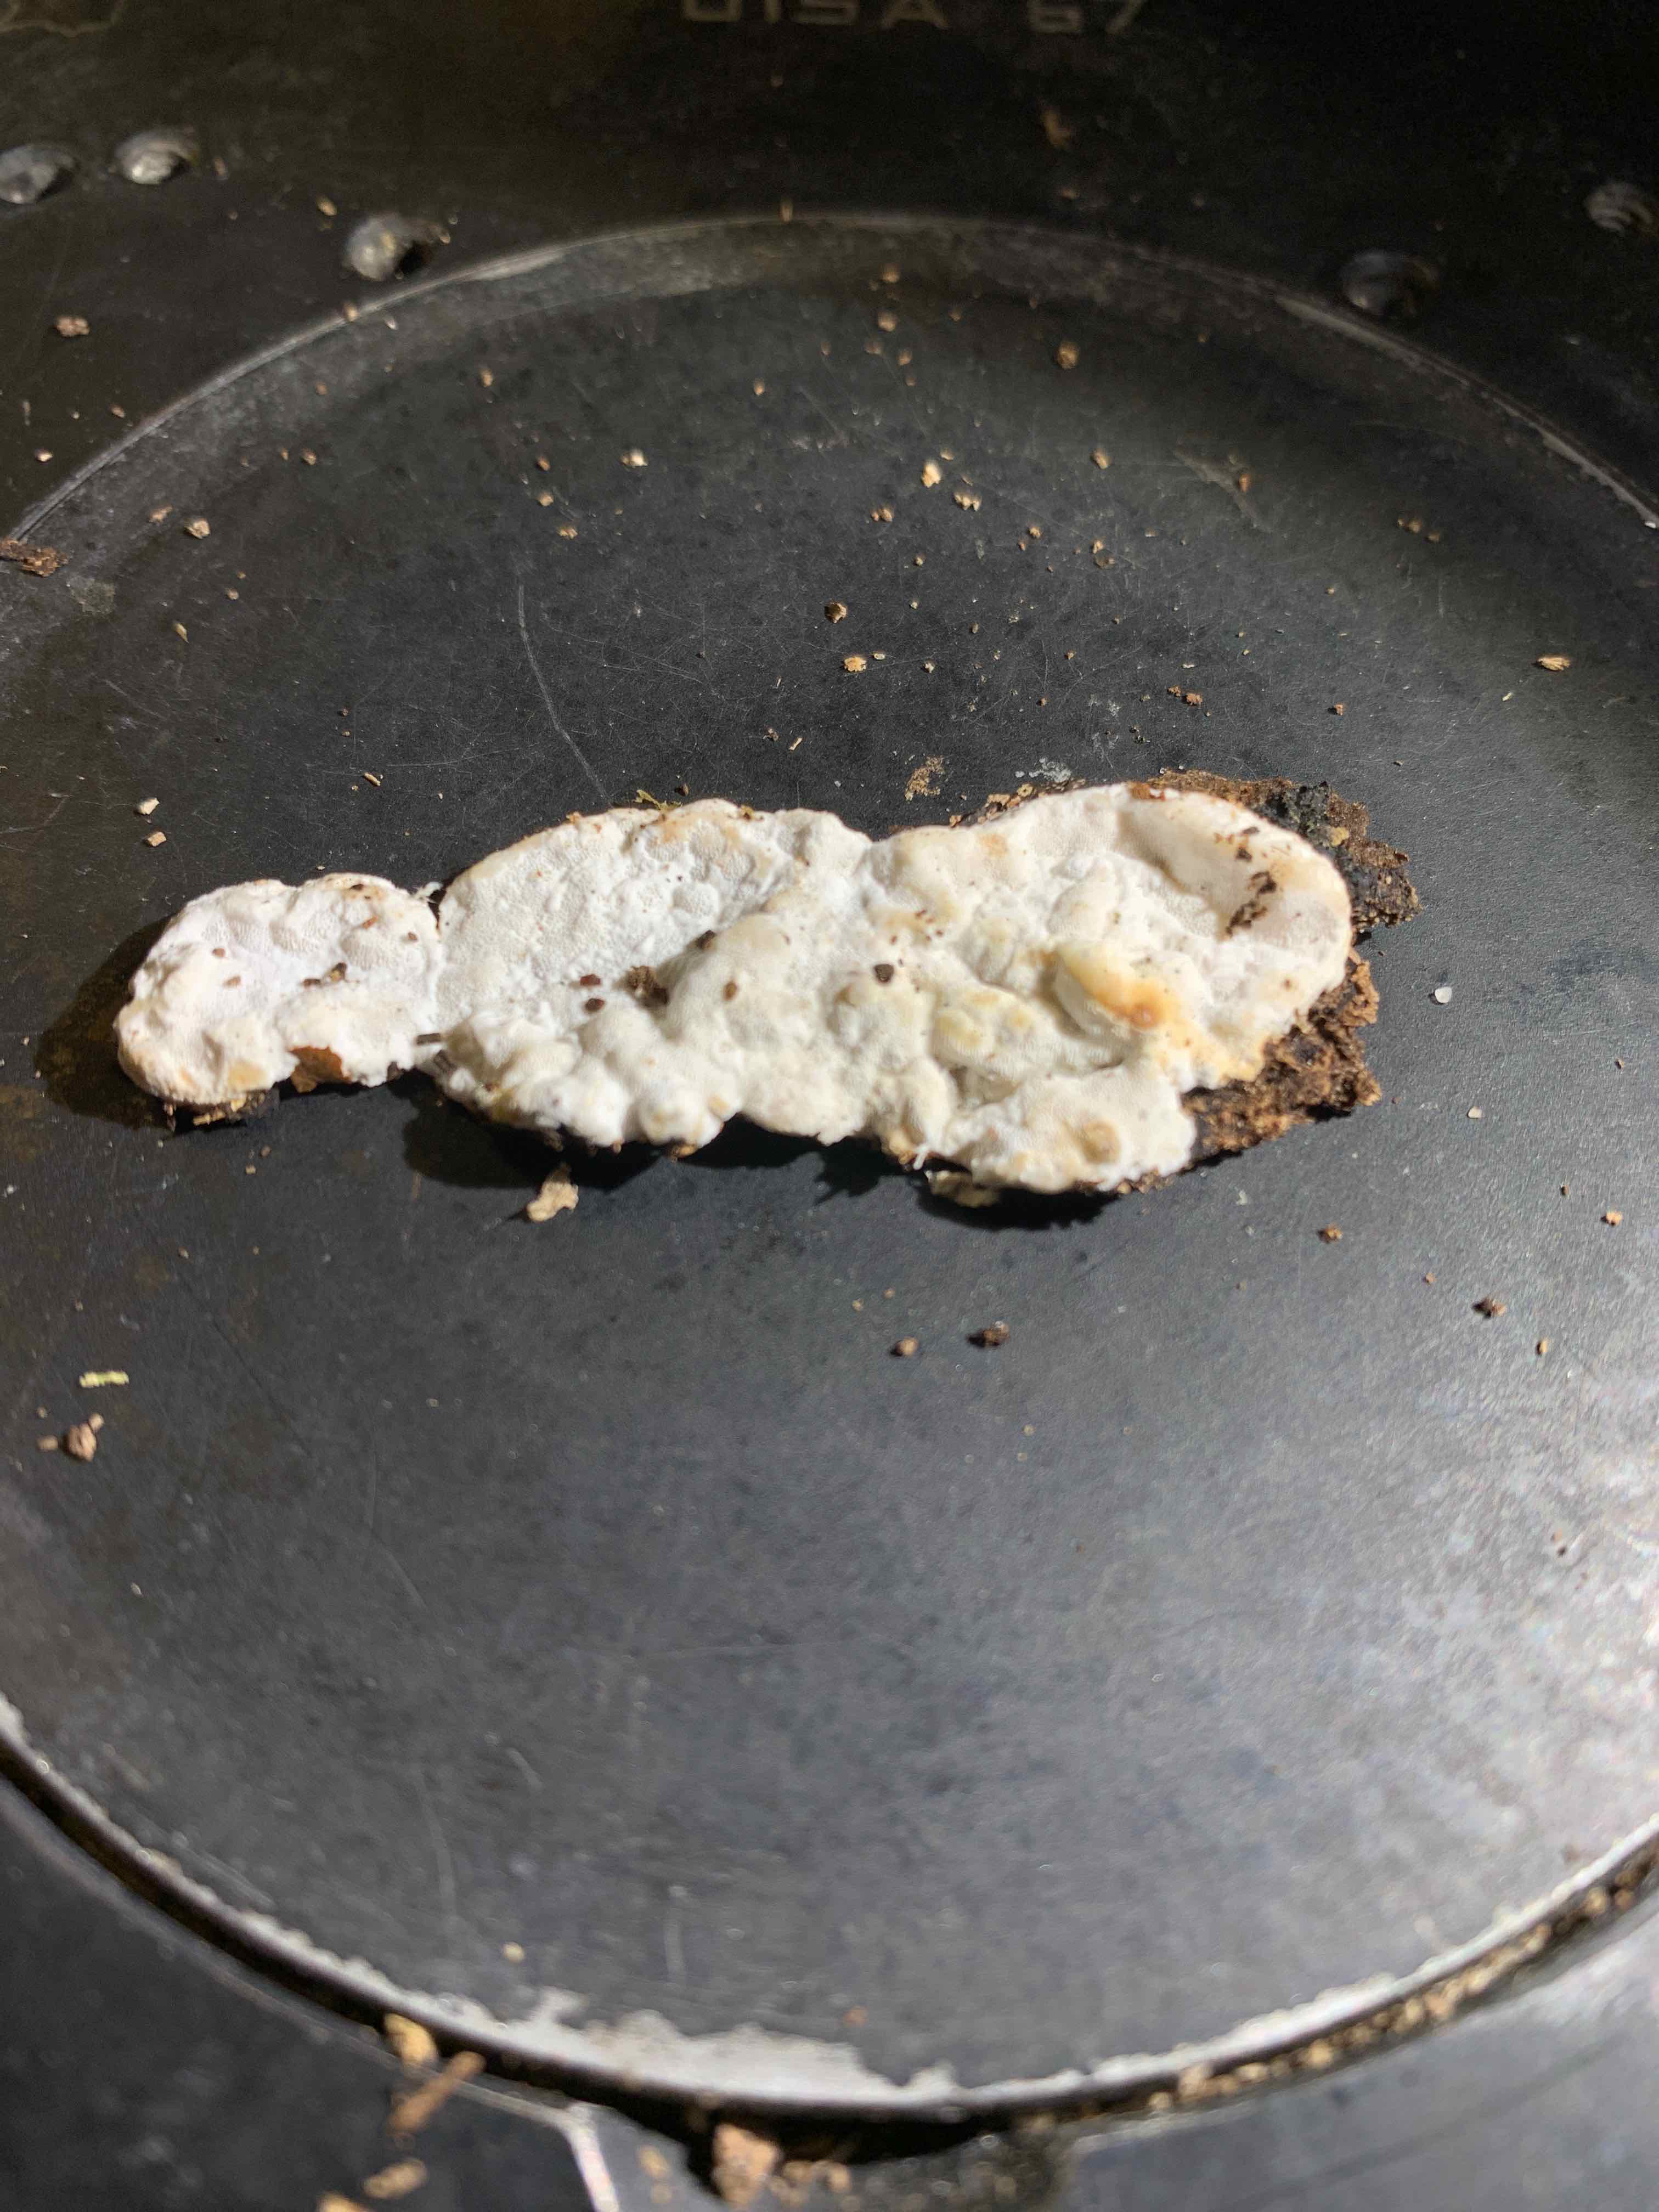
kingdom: Fungi
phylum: Basidiomycota
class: Agaricomycetes
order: Polyporales
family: Incrustoporiaceae
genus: Skeletocutis
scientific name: Skeletocutis nemoralis
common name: stor krystalporesvamp
